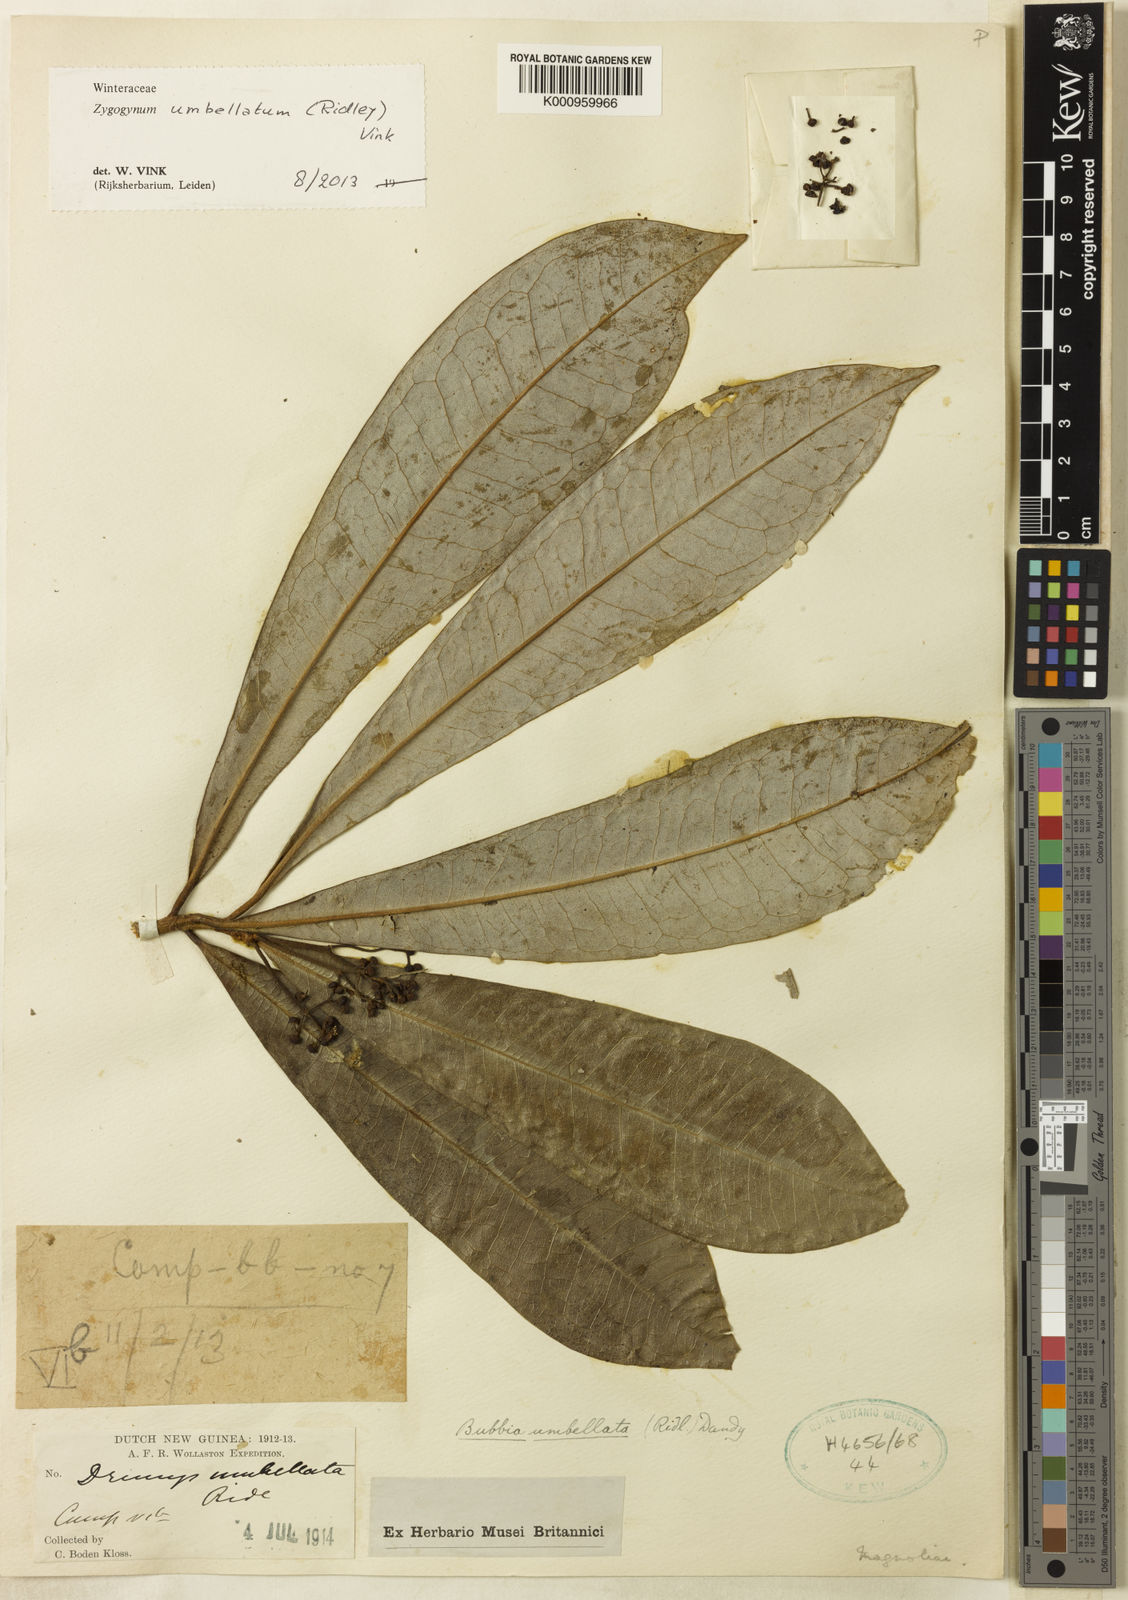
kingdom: Plantae
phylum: Tracheophyta
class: Magnoliopsida
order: Canellales
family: Winteraceae
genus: Zygogynum
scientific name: Zygogynum umbellatum
